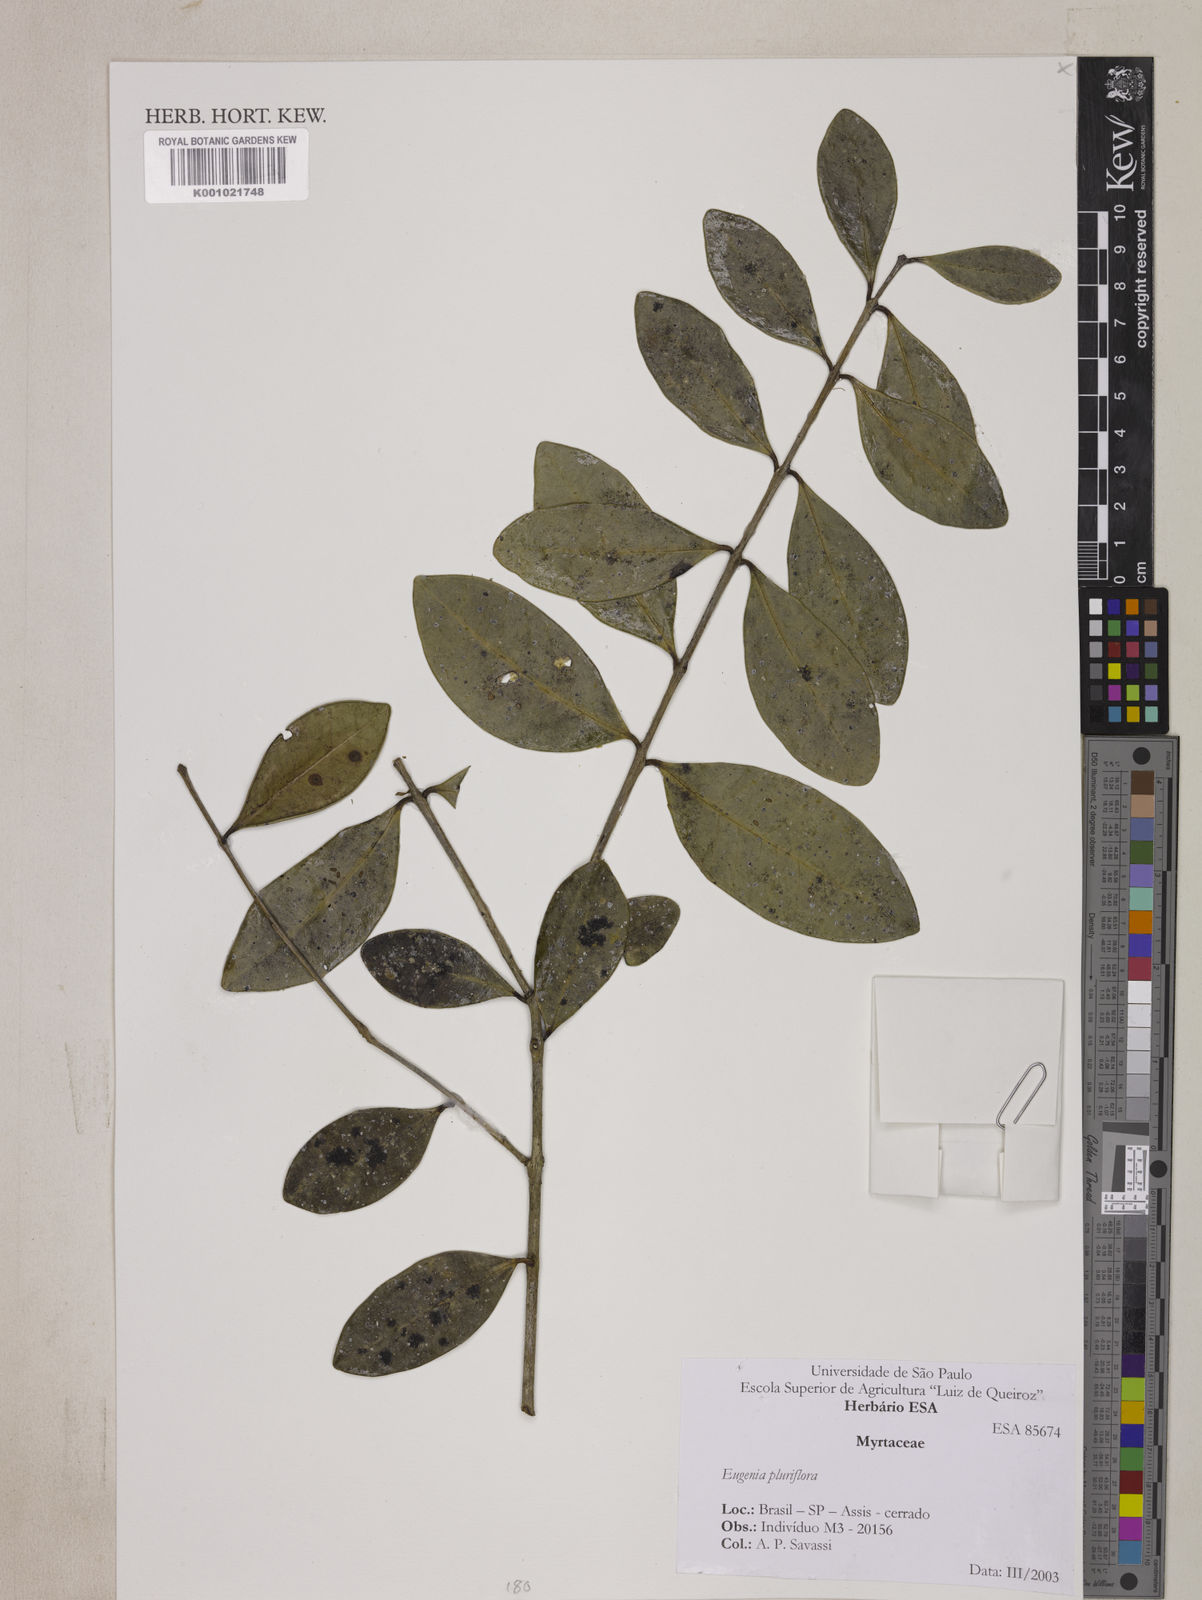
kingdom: Plantae
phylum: Tracheophyta
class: Magnoliopsida
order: Myrtales
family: Myrtaceae
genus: Eugenia
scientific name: Eugenia pluriflora
